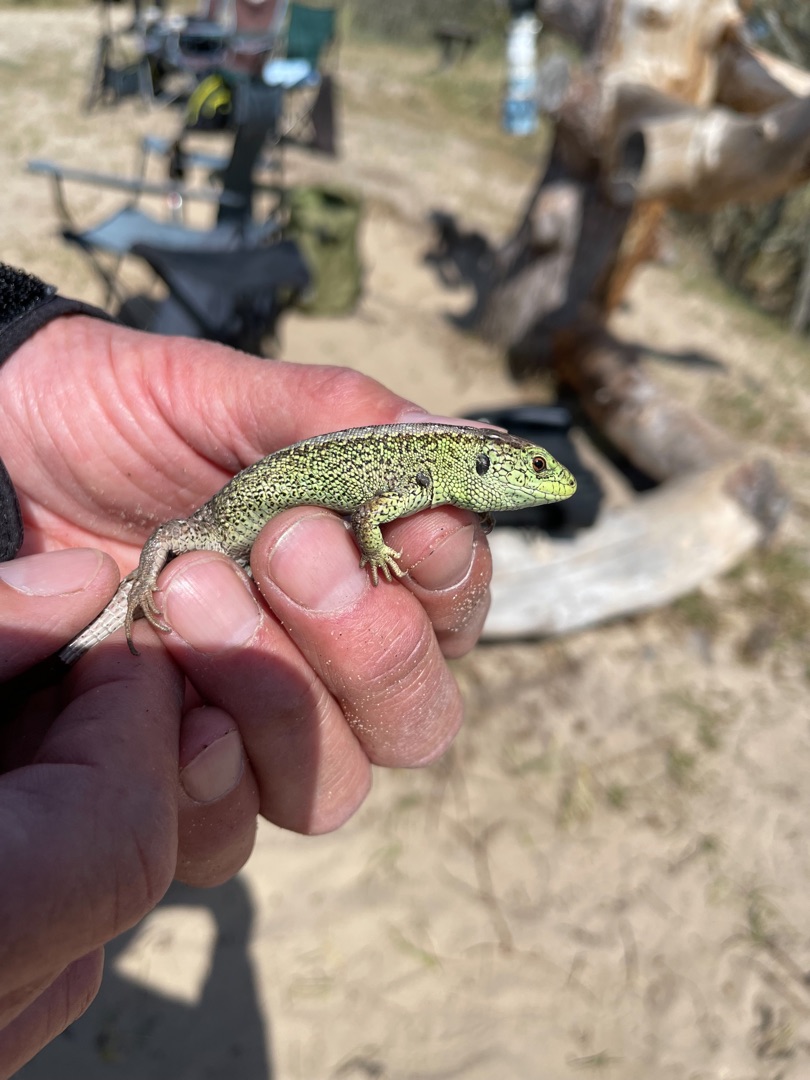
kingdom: Animalia
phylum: Chordata
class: Squamata
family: Lacertidae
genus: Lacerta
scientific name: Lacerta agilis
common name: Markfirben
